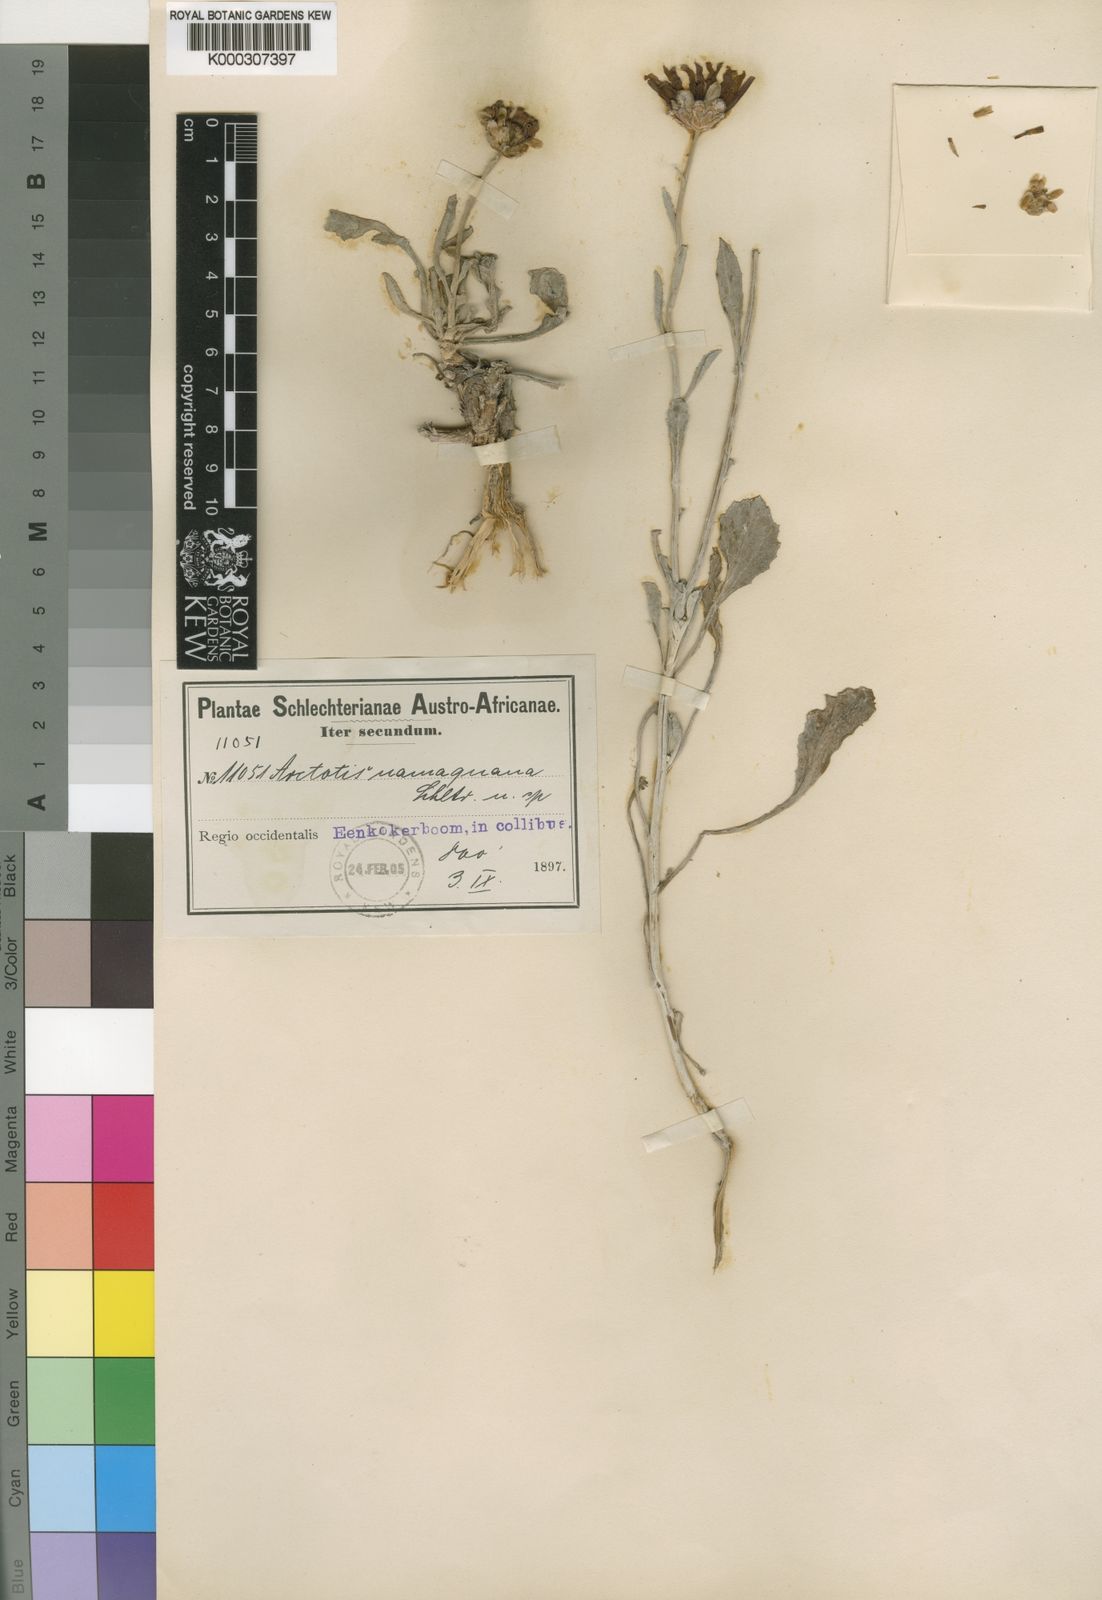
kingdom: Plantae
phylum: Tracheophyta
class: Magnoliopsida
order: Asterales
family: Asteraceae
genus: Arctotis
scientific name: Arctotis auriculata
